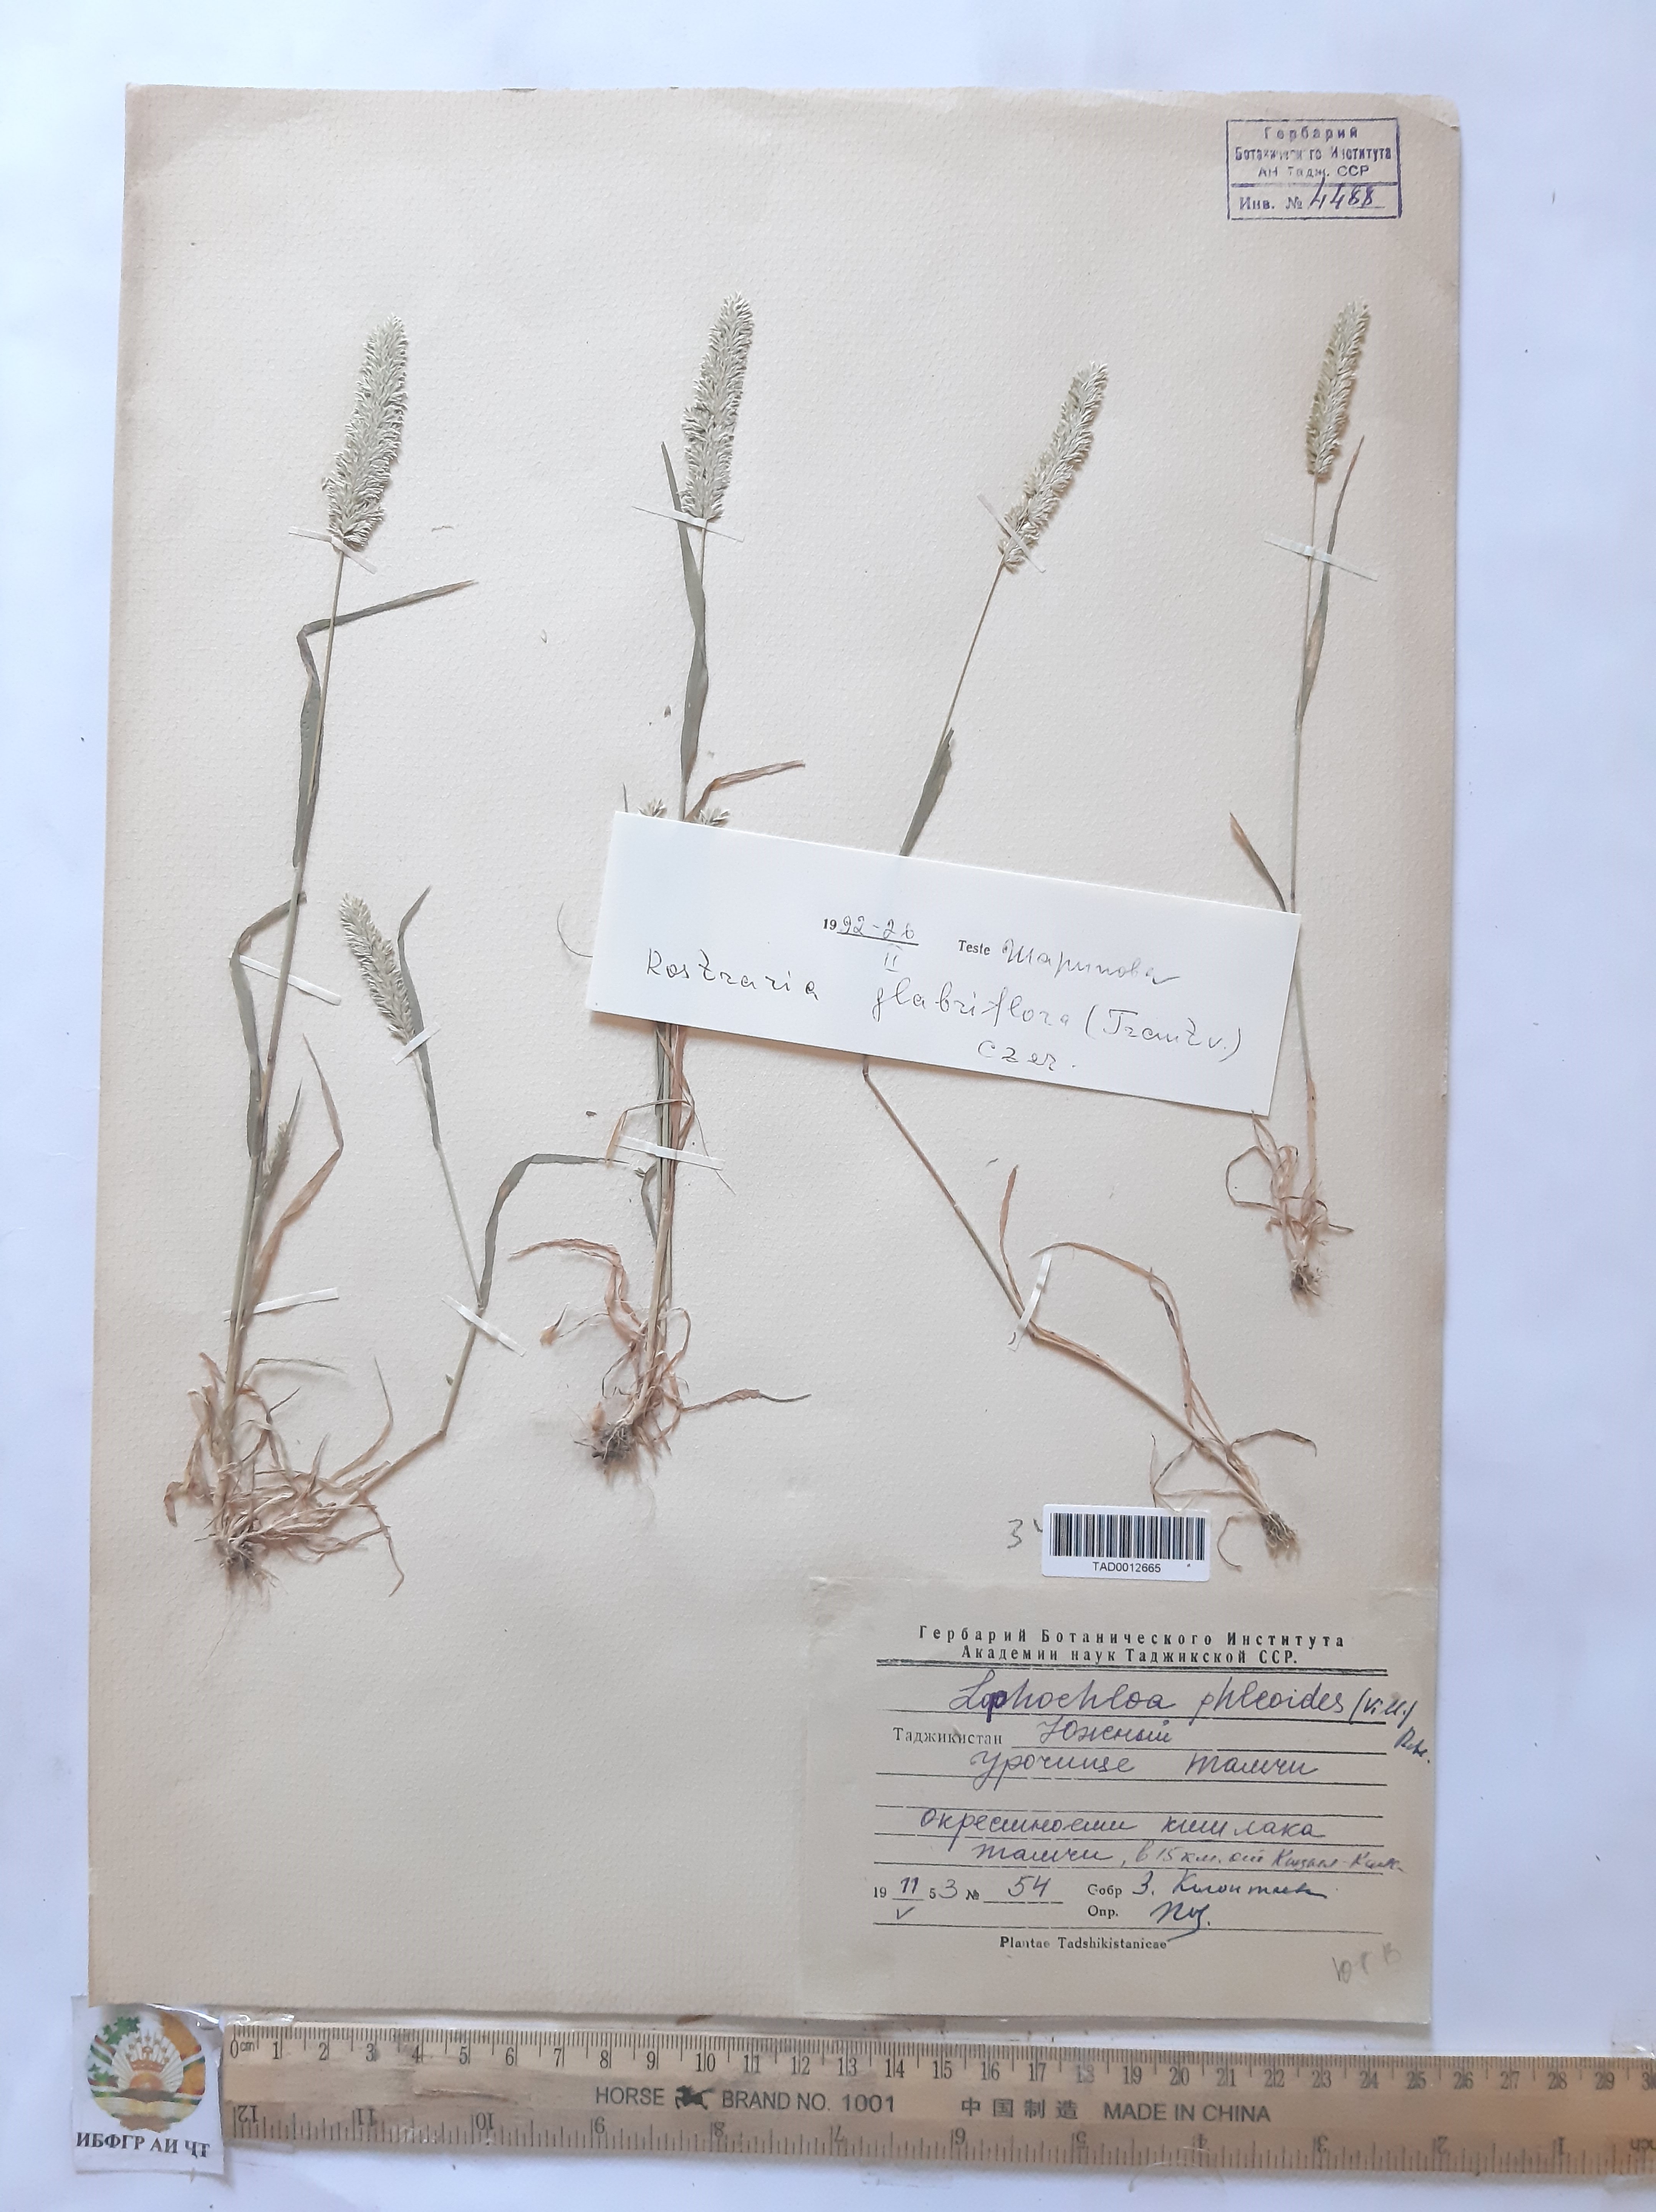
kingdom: Plantae
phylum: Tracheophyta
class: Liliopsida
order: Poales
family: Poaceae
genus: Rostraria
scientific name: Rostraria cristata
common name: Mediterranean hair-grass
